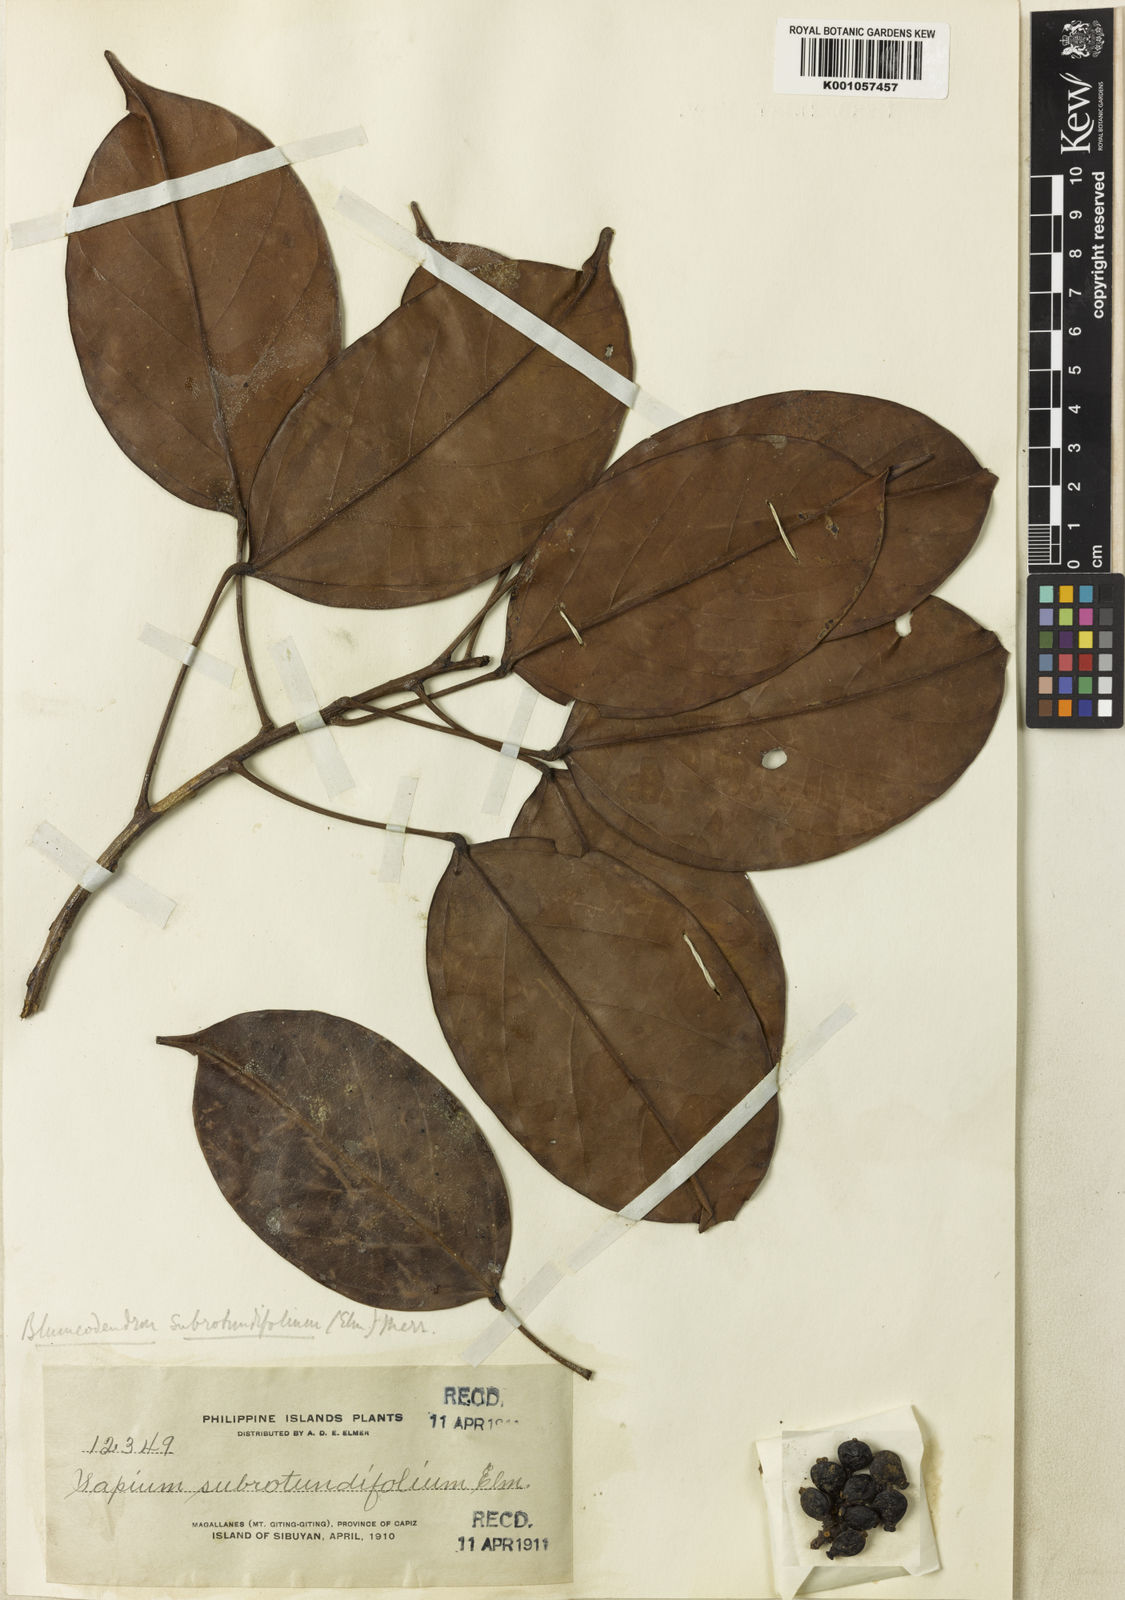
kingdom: Plantae
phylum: Tracheophyta
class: Magnoliopsida
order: Malpighiales
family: Euphorbiaceae
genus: Blumeodendron
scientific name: Blumeodendron kurzii
